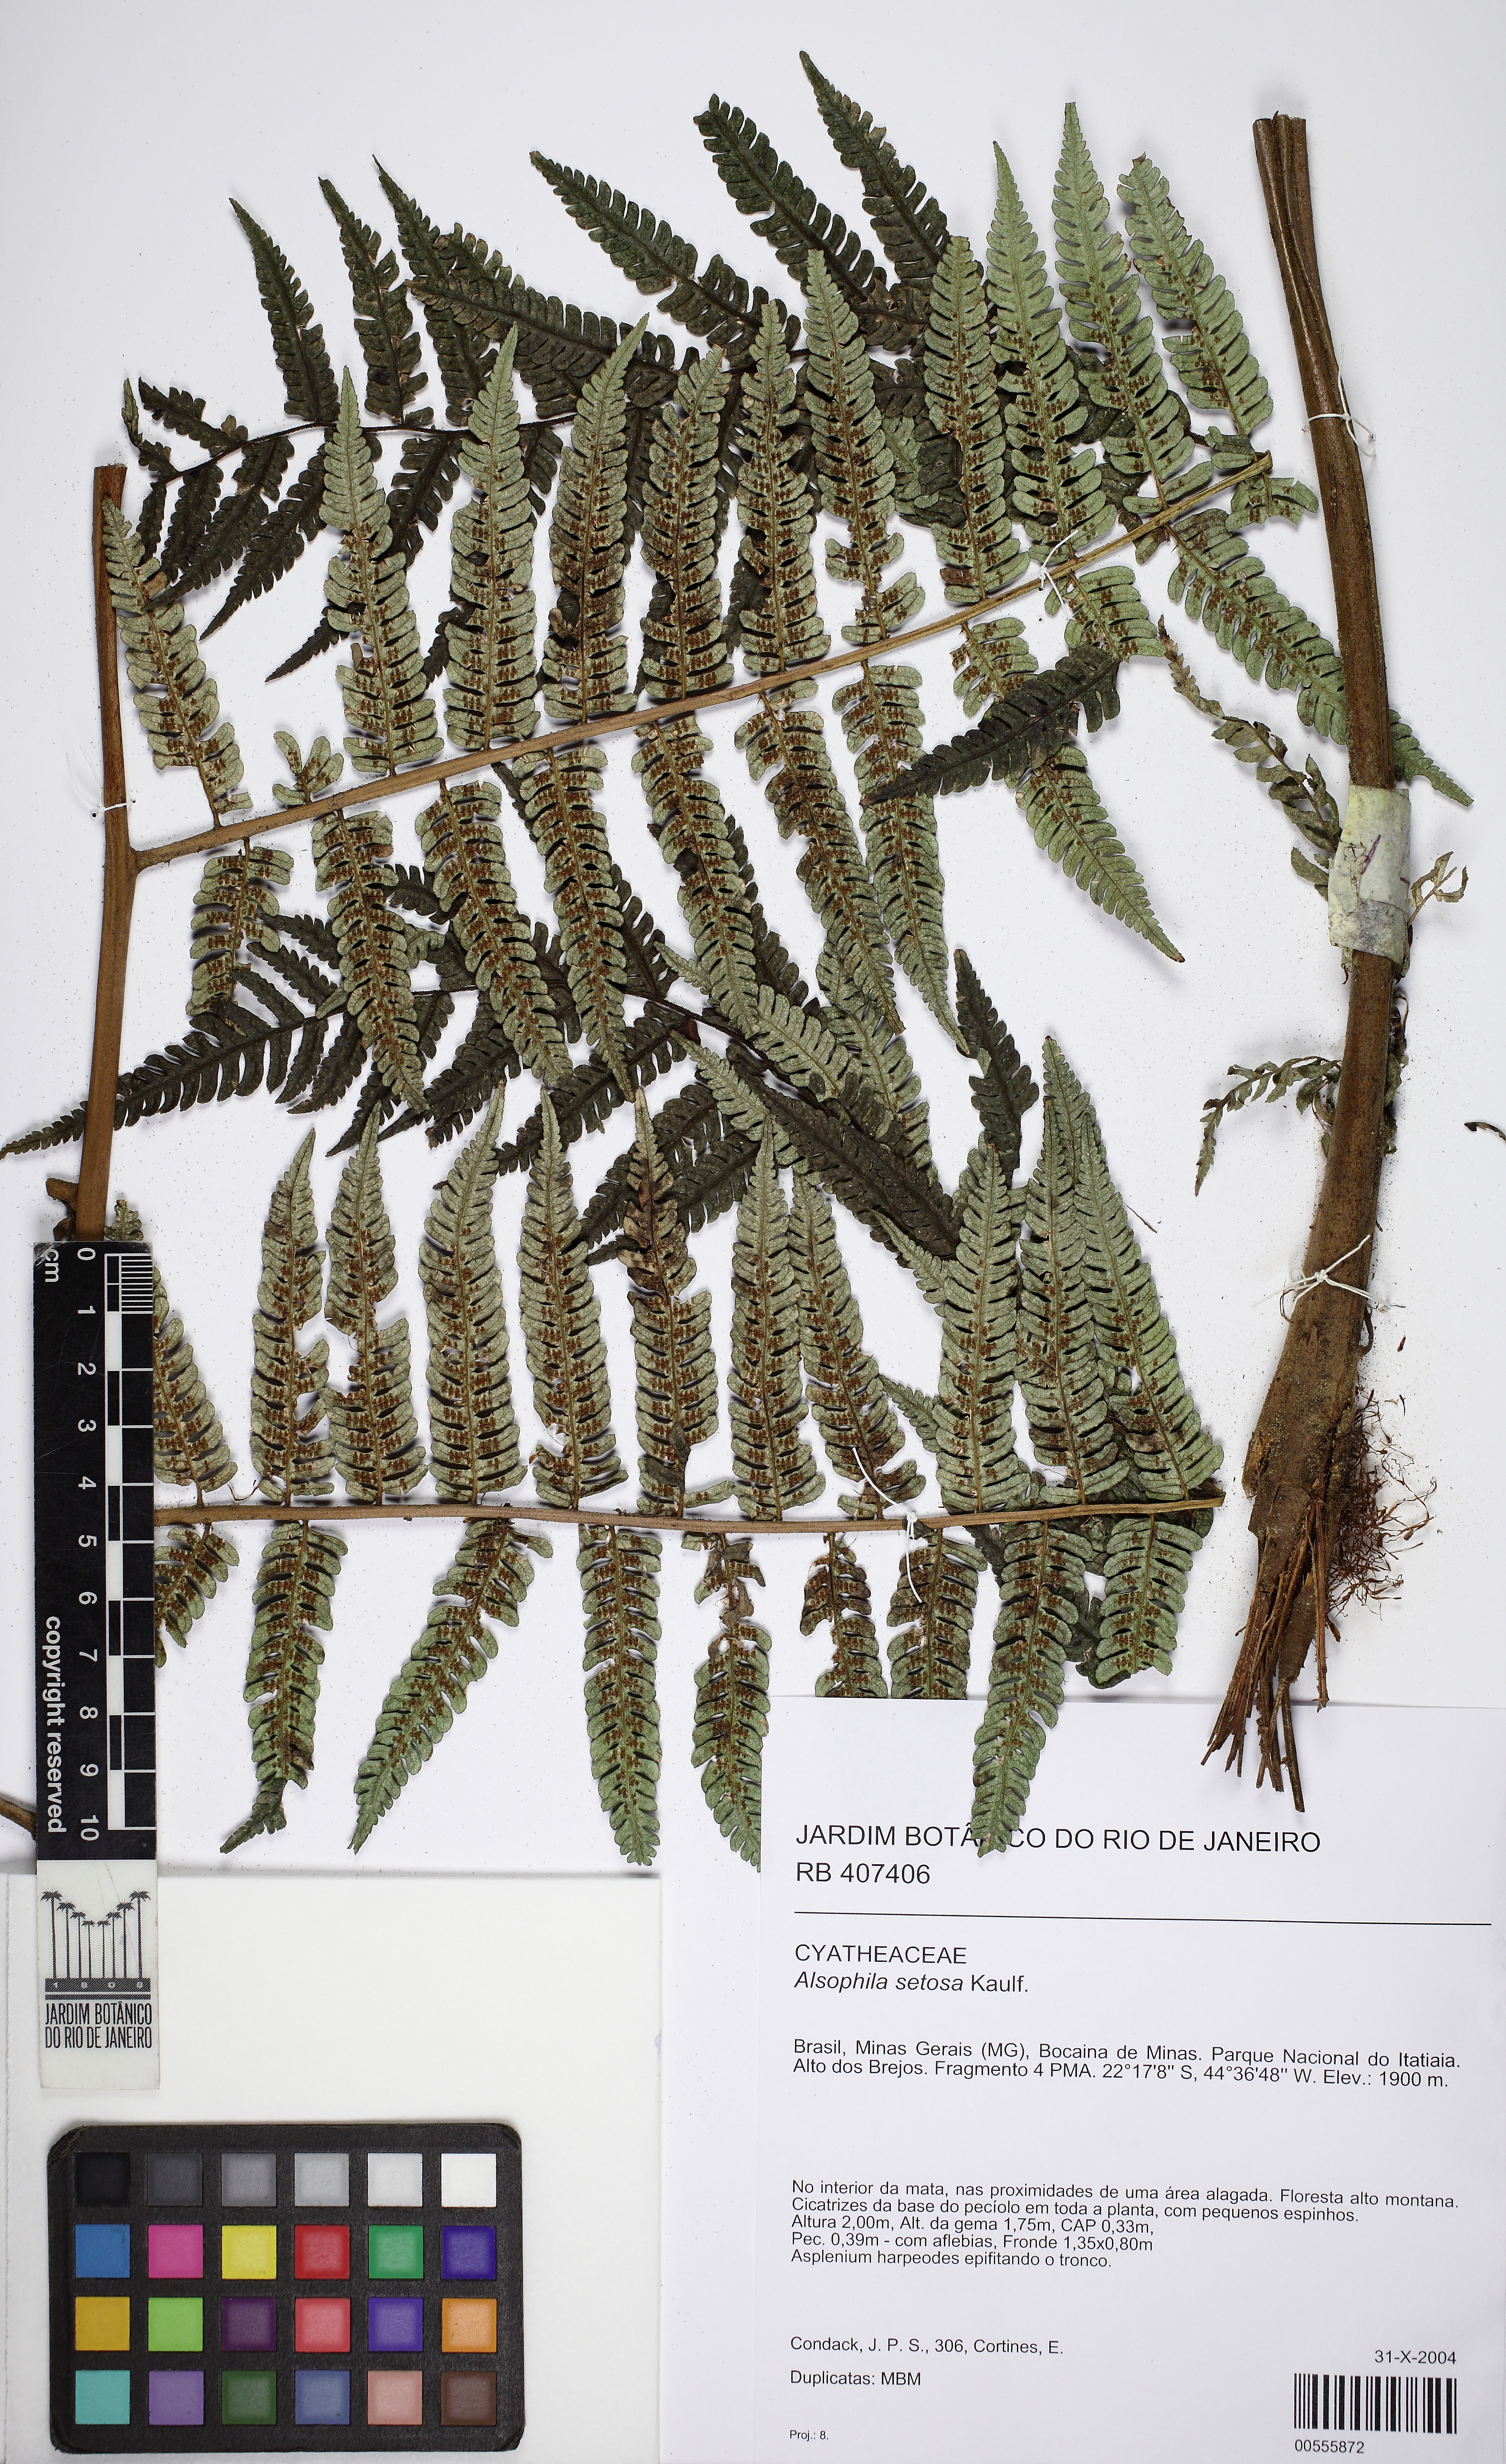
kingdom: Plantae
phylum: Tracheophyta
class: Polypodiopsida
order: Cyatheales
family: Cyatheaceae
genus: Alsophila
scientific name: Alsophila setosa
